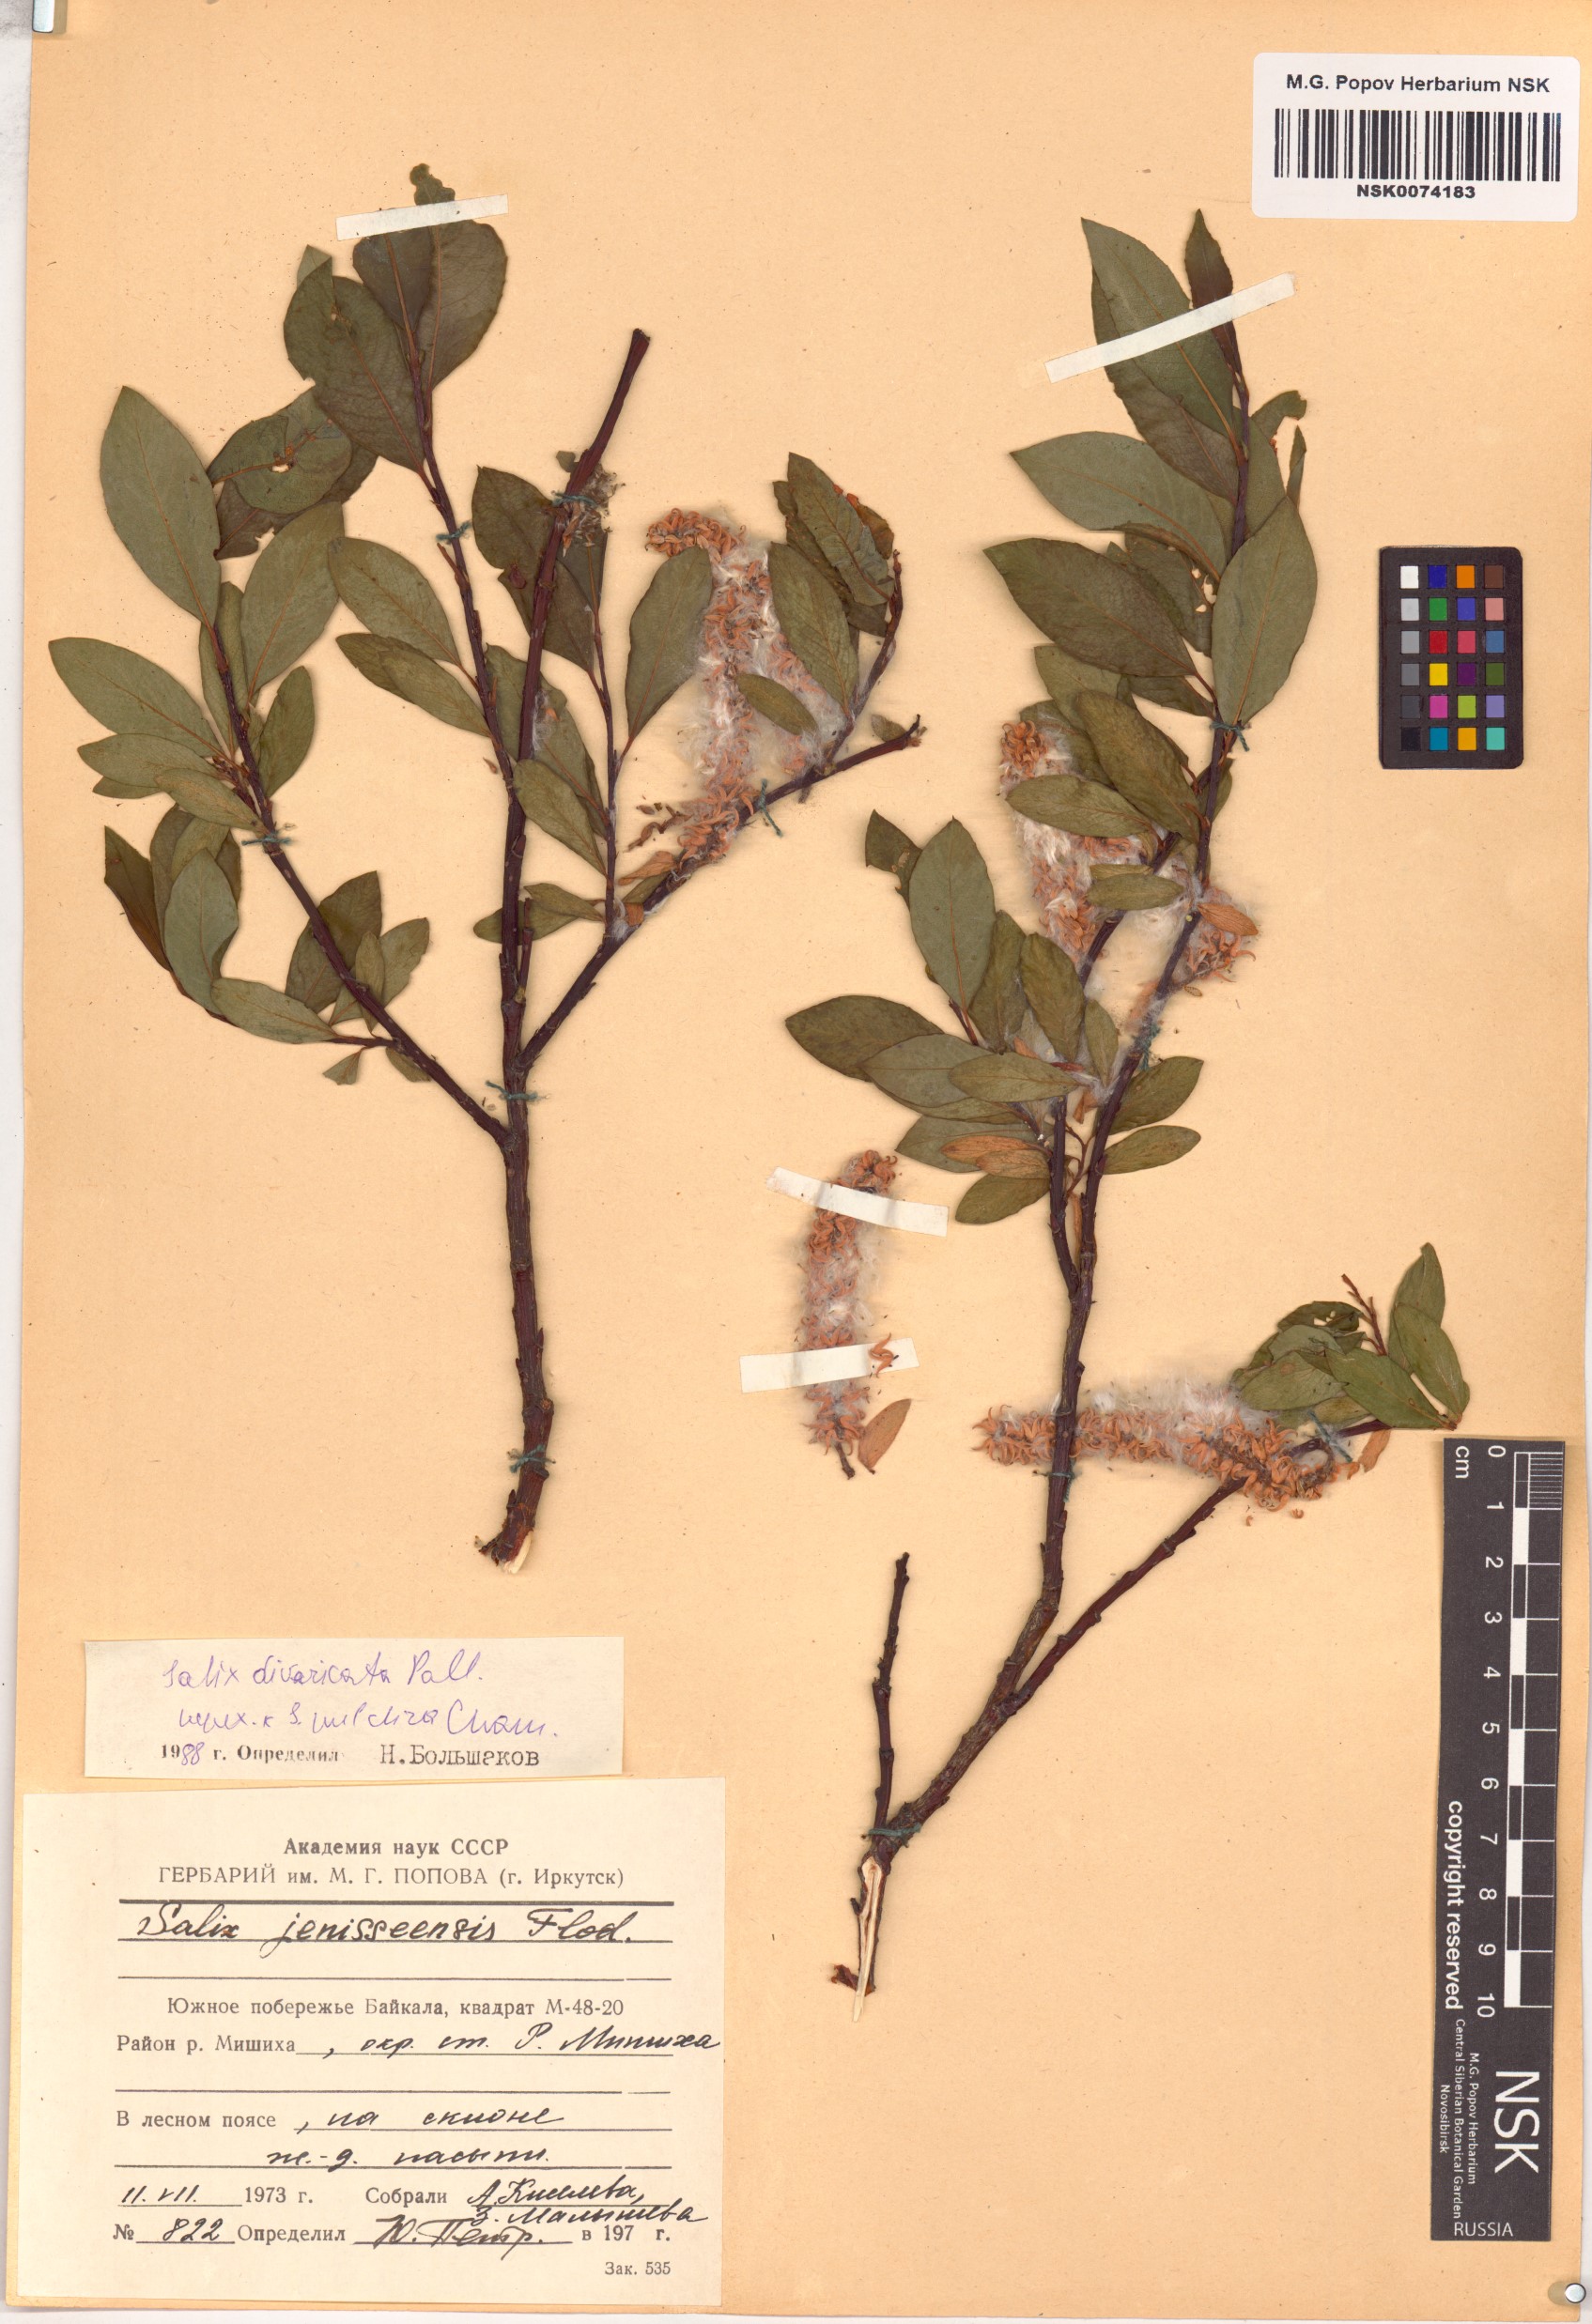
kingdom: Plantae
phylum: Tracheophyta
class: Magnoliopsida
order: Malpighiales
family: Salicaceae
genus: Salix
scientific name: Salix divaricata
